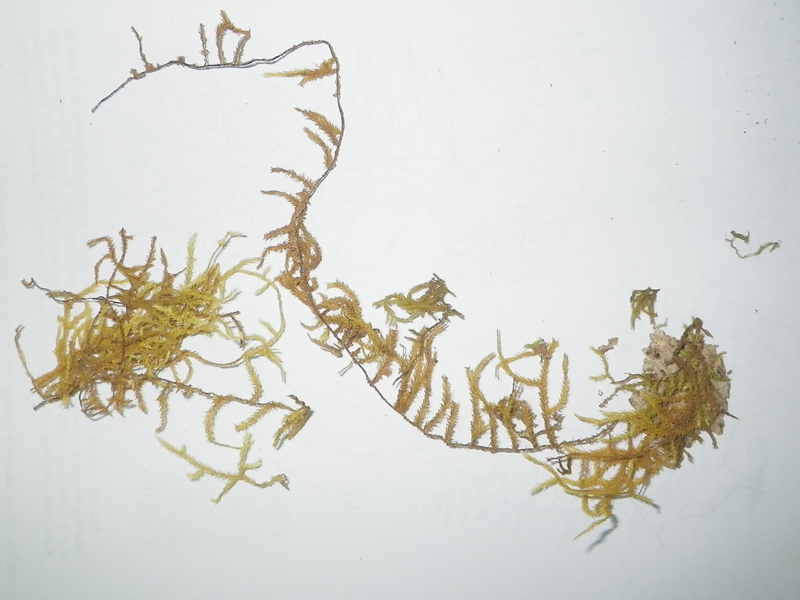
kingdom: Plantae
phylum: Bryophyta
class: Bryopsida
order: Hypnales
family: Meteoriaceae
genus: Trachycladiella
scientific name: Trachycladiella sparsa
